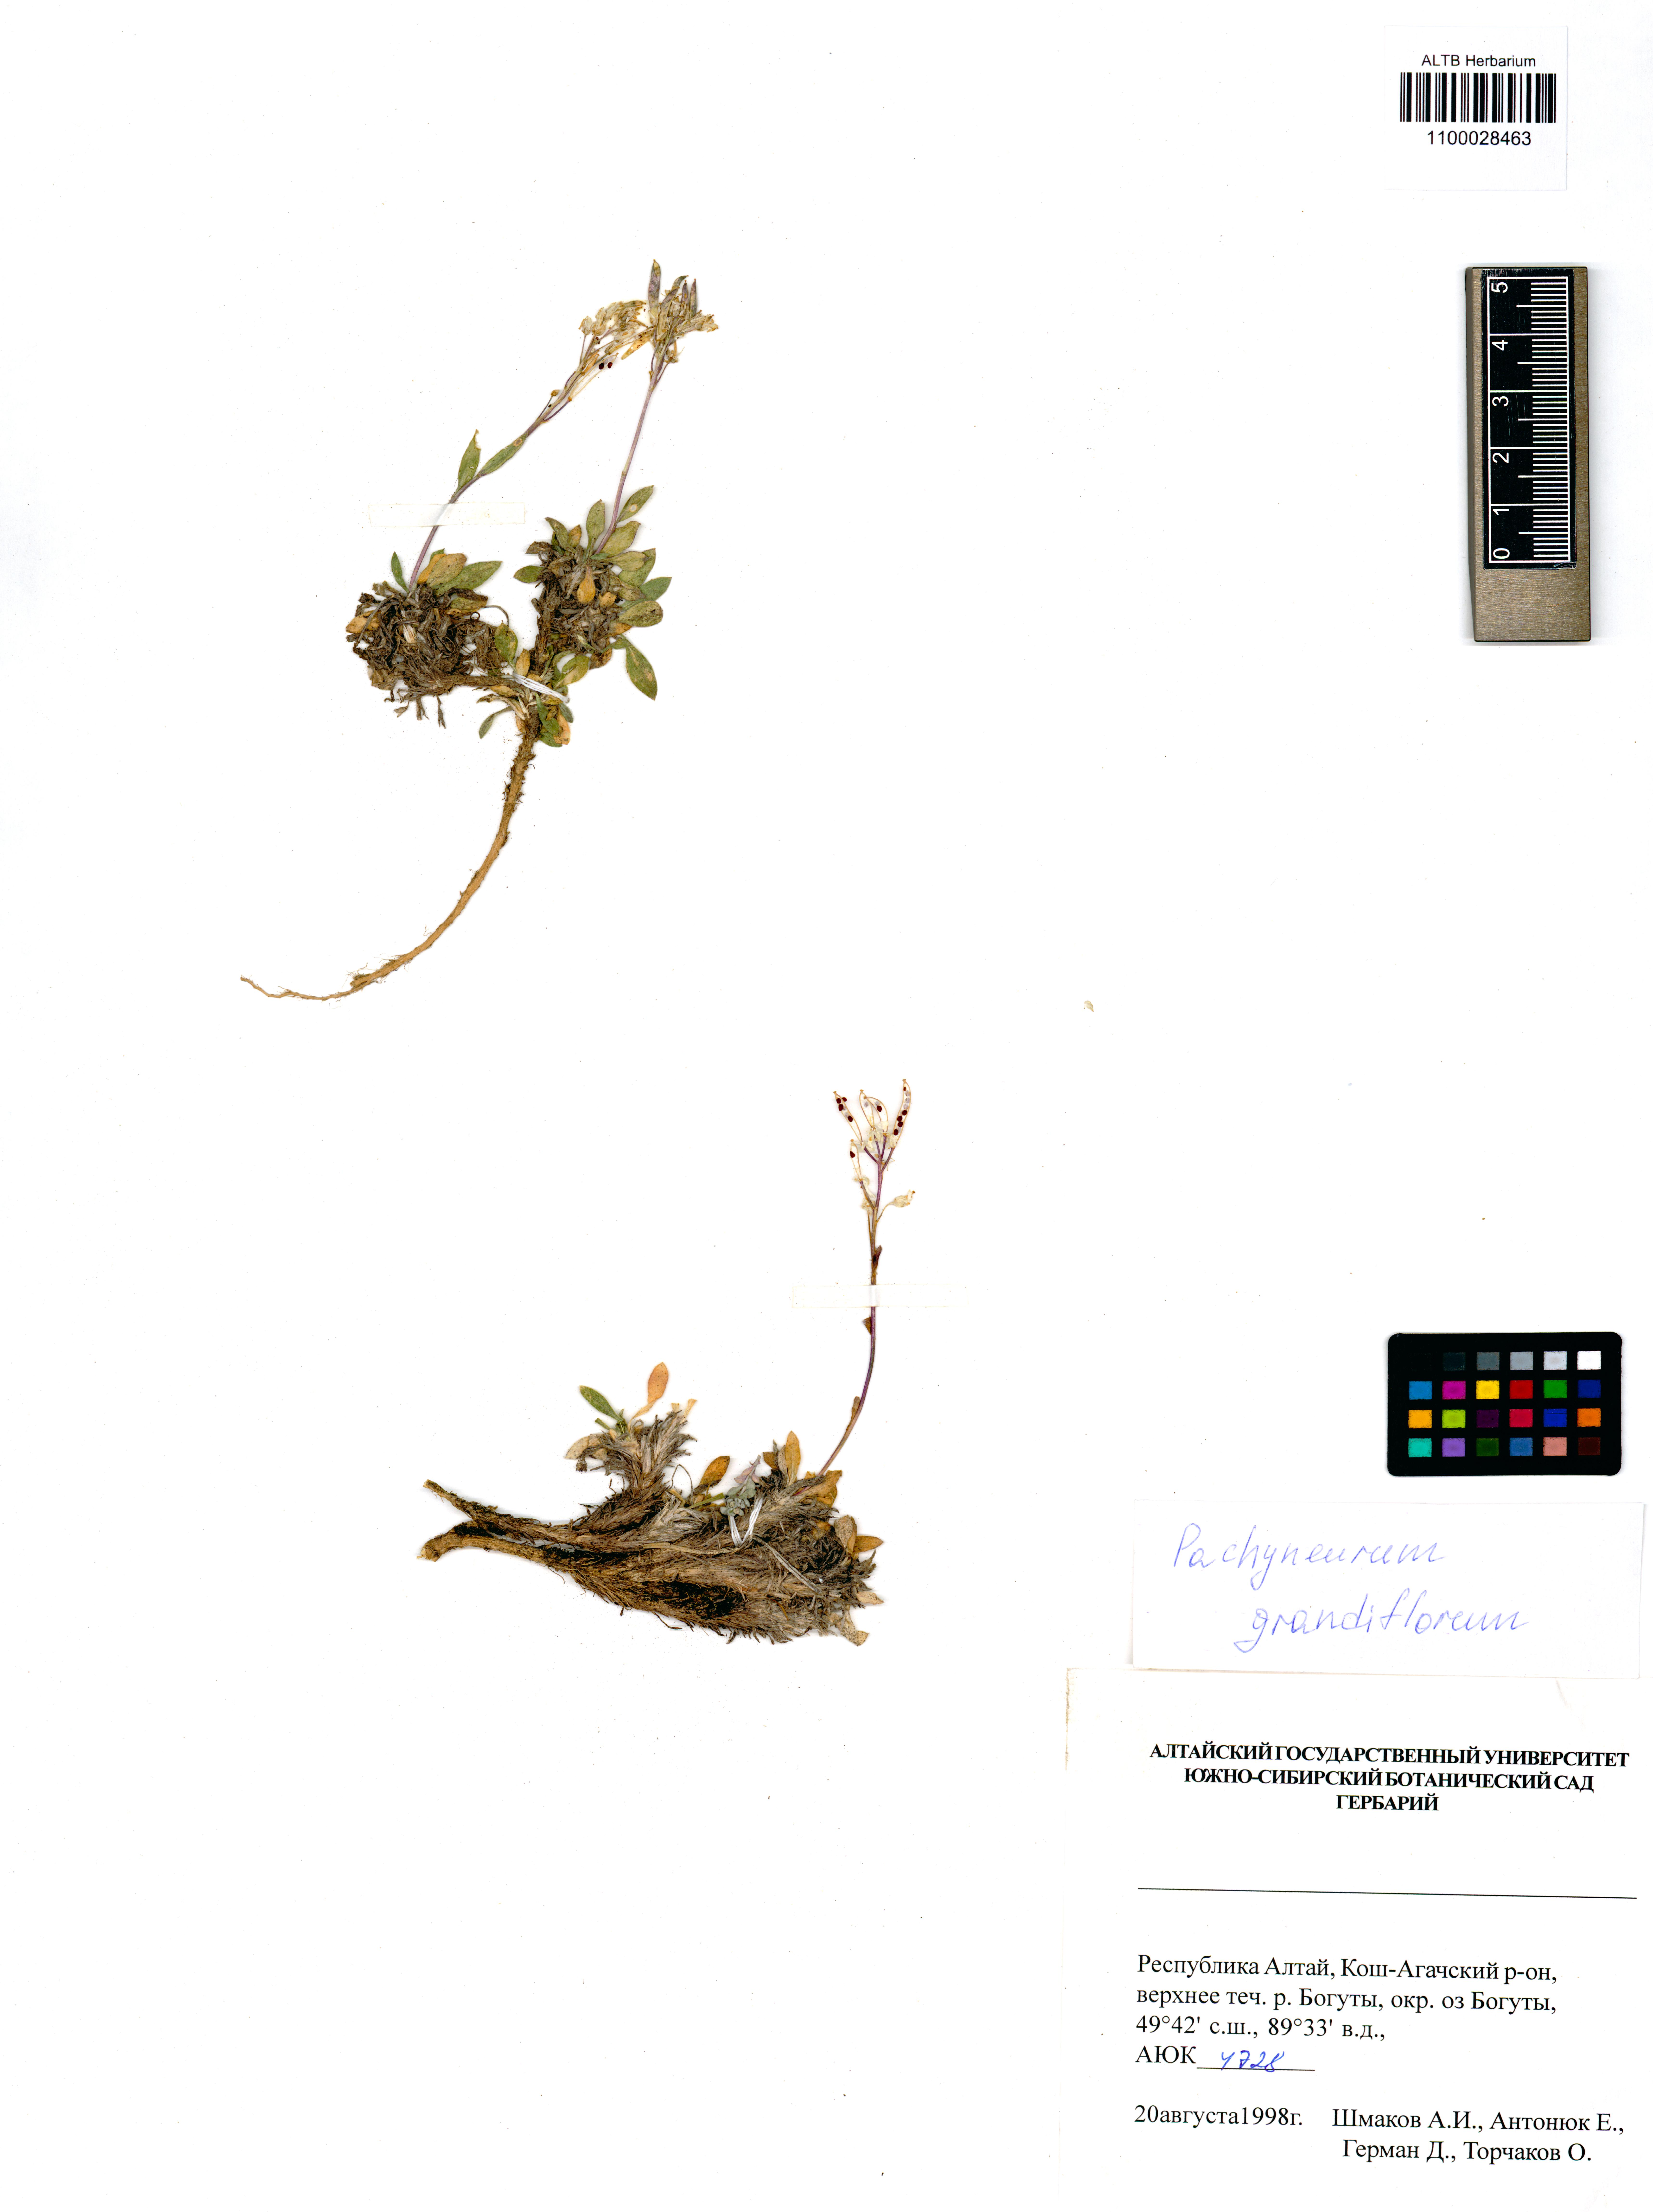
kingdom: Plantae
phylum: Tracheophyta
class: Magnoliopsida
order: Brassicales
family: Brassicaceae
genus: Pachyneurum
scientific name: Pachyneurum grandiflorum
